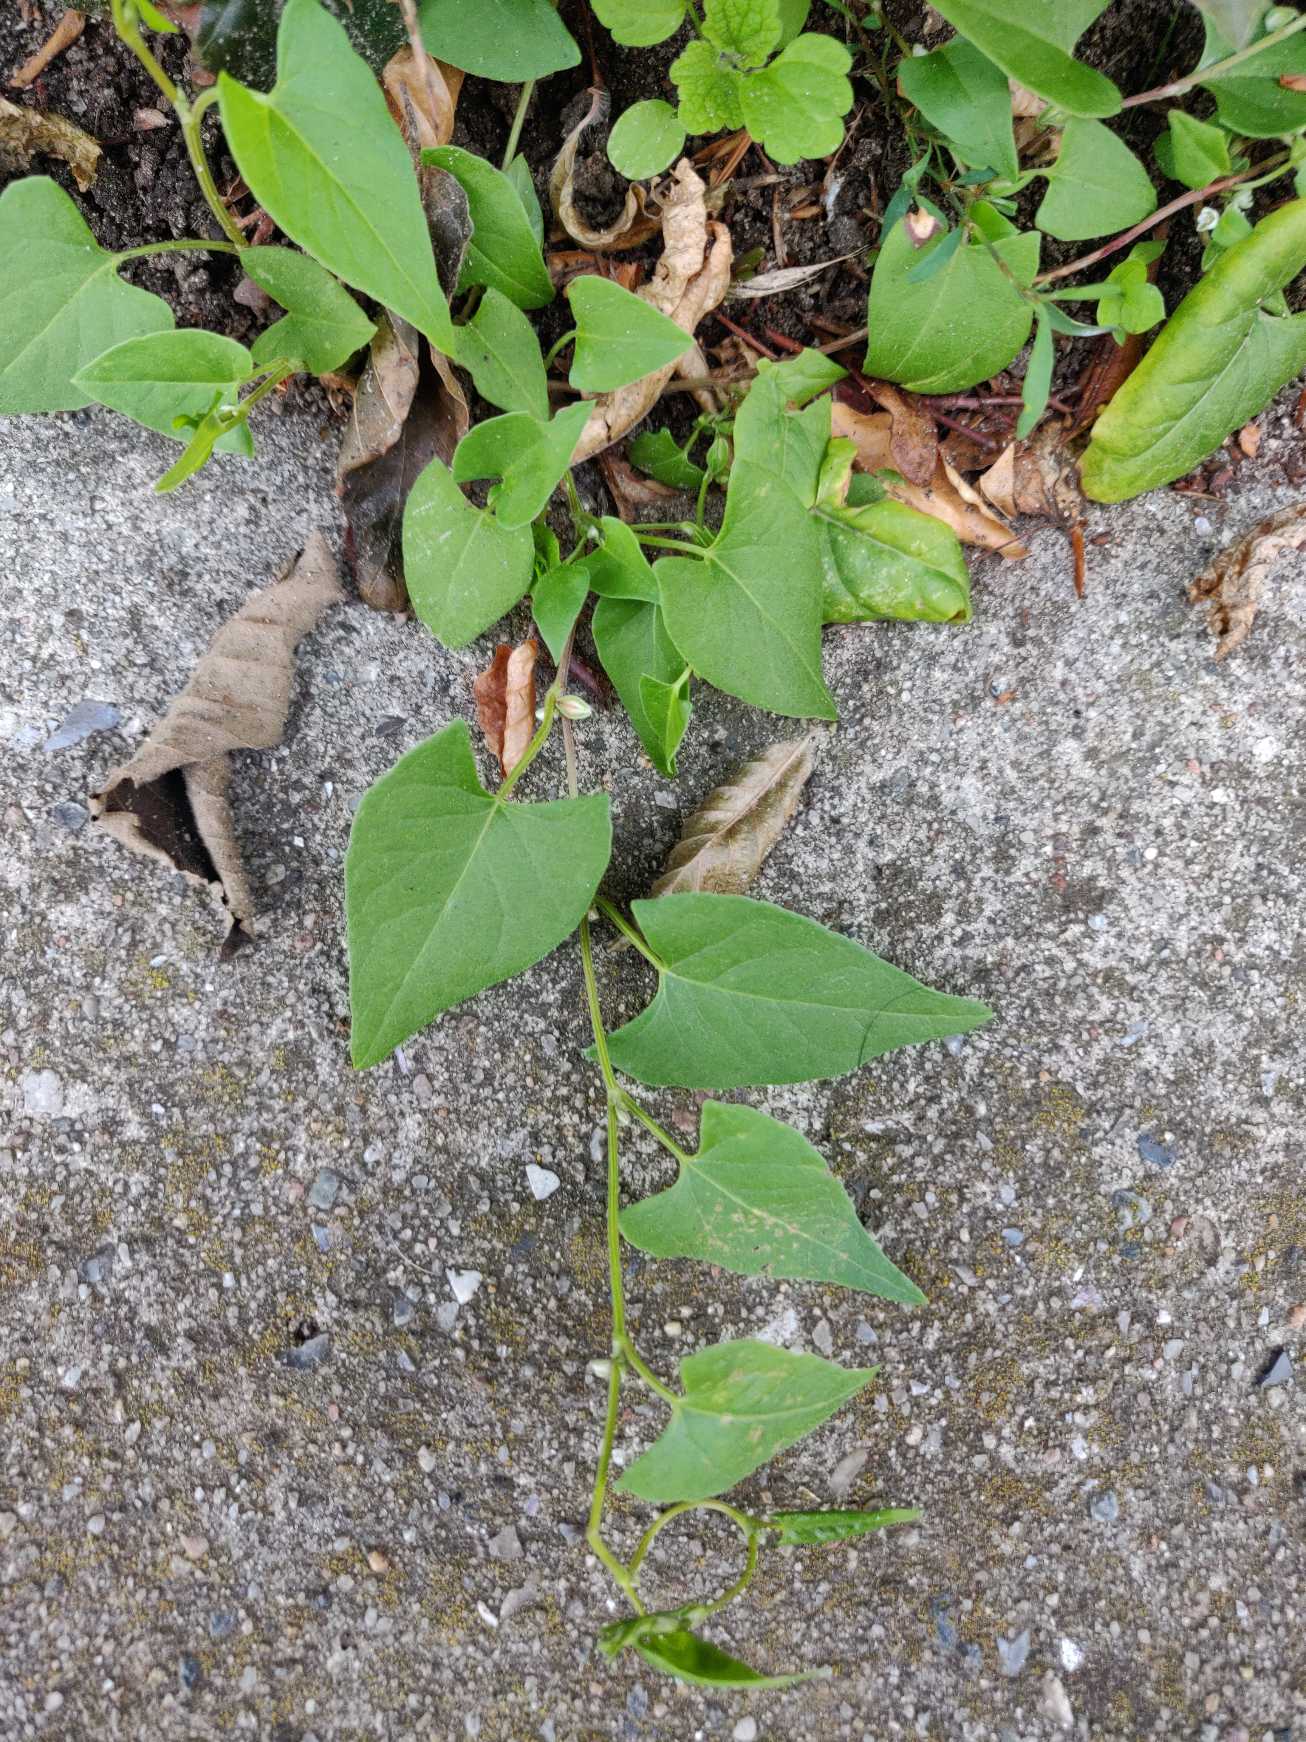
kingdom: Plantae
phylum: Tracheophyta
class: Magnoliopsida
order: Caryophyllales
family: Polygonaceae
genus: Fallopia
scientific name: Fallopia convolvulus
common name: Snerle-pileurt
